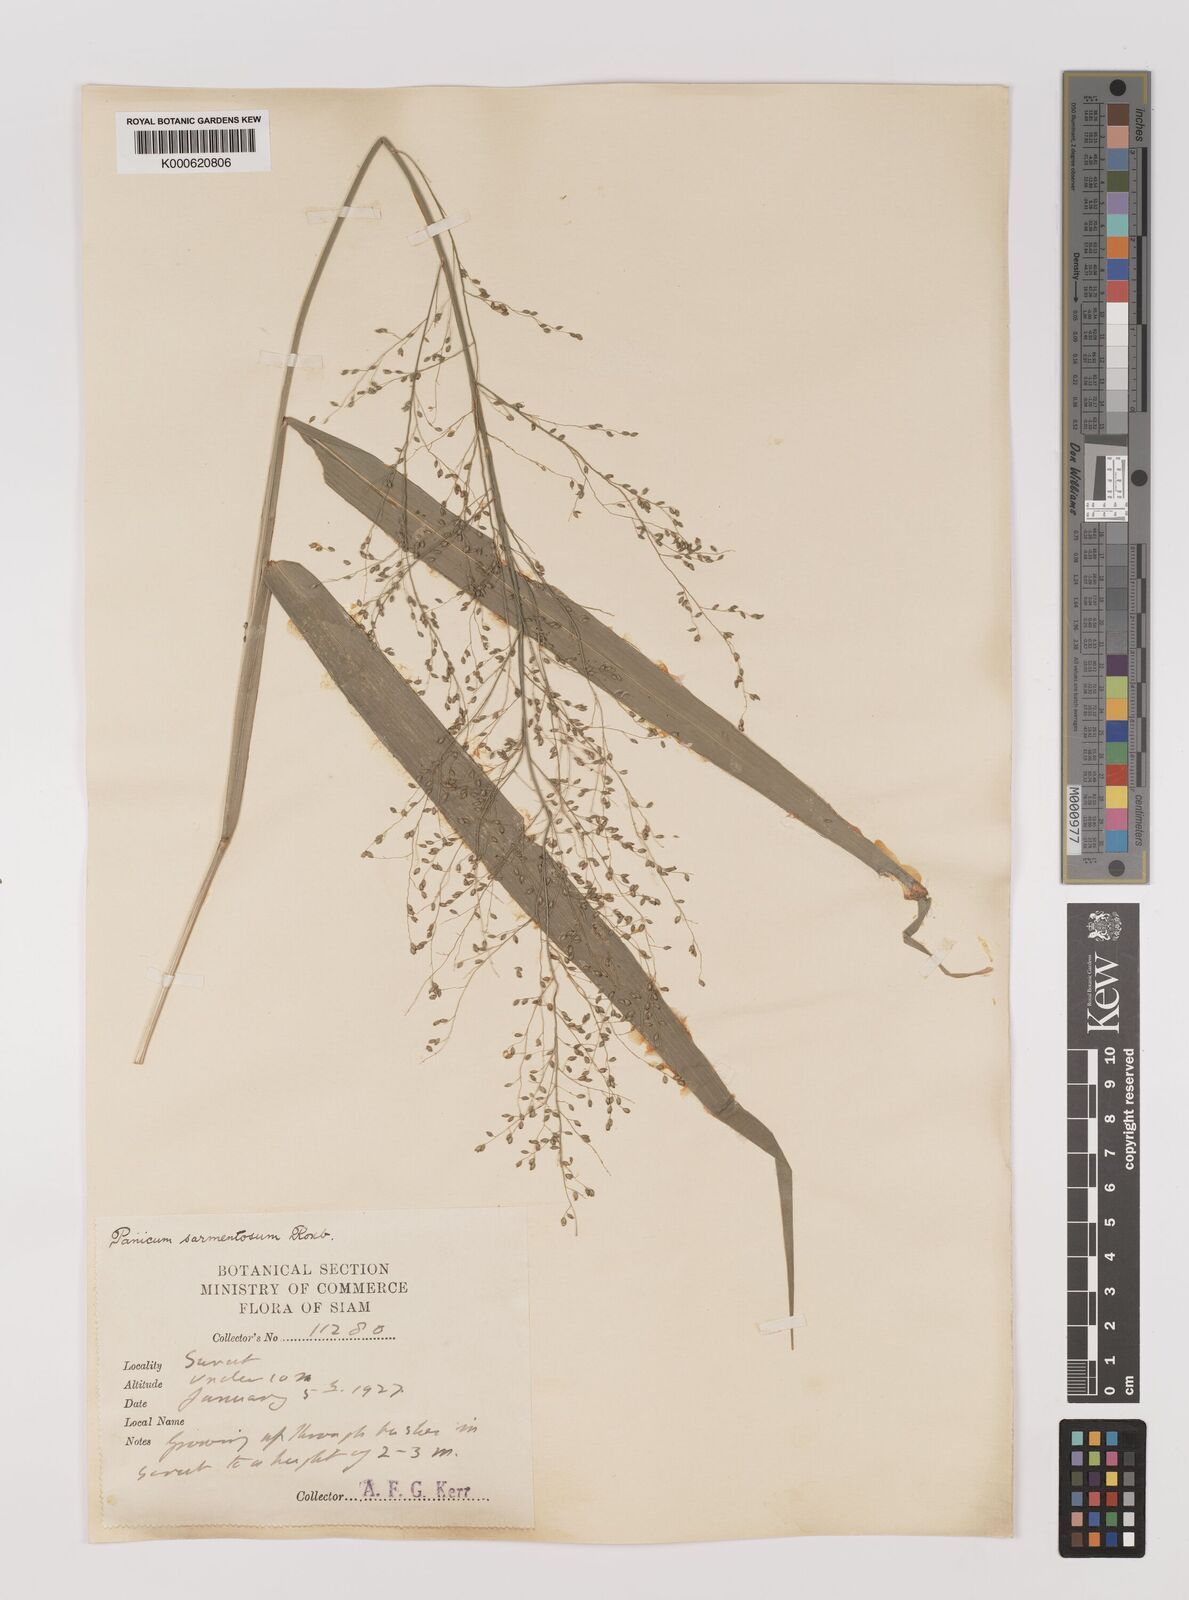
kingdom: Plantae
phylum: Tracheophyta
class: Liliopsida
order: Poales
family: Poaceae
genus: Panicum
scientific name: Panicum sarmentosum
